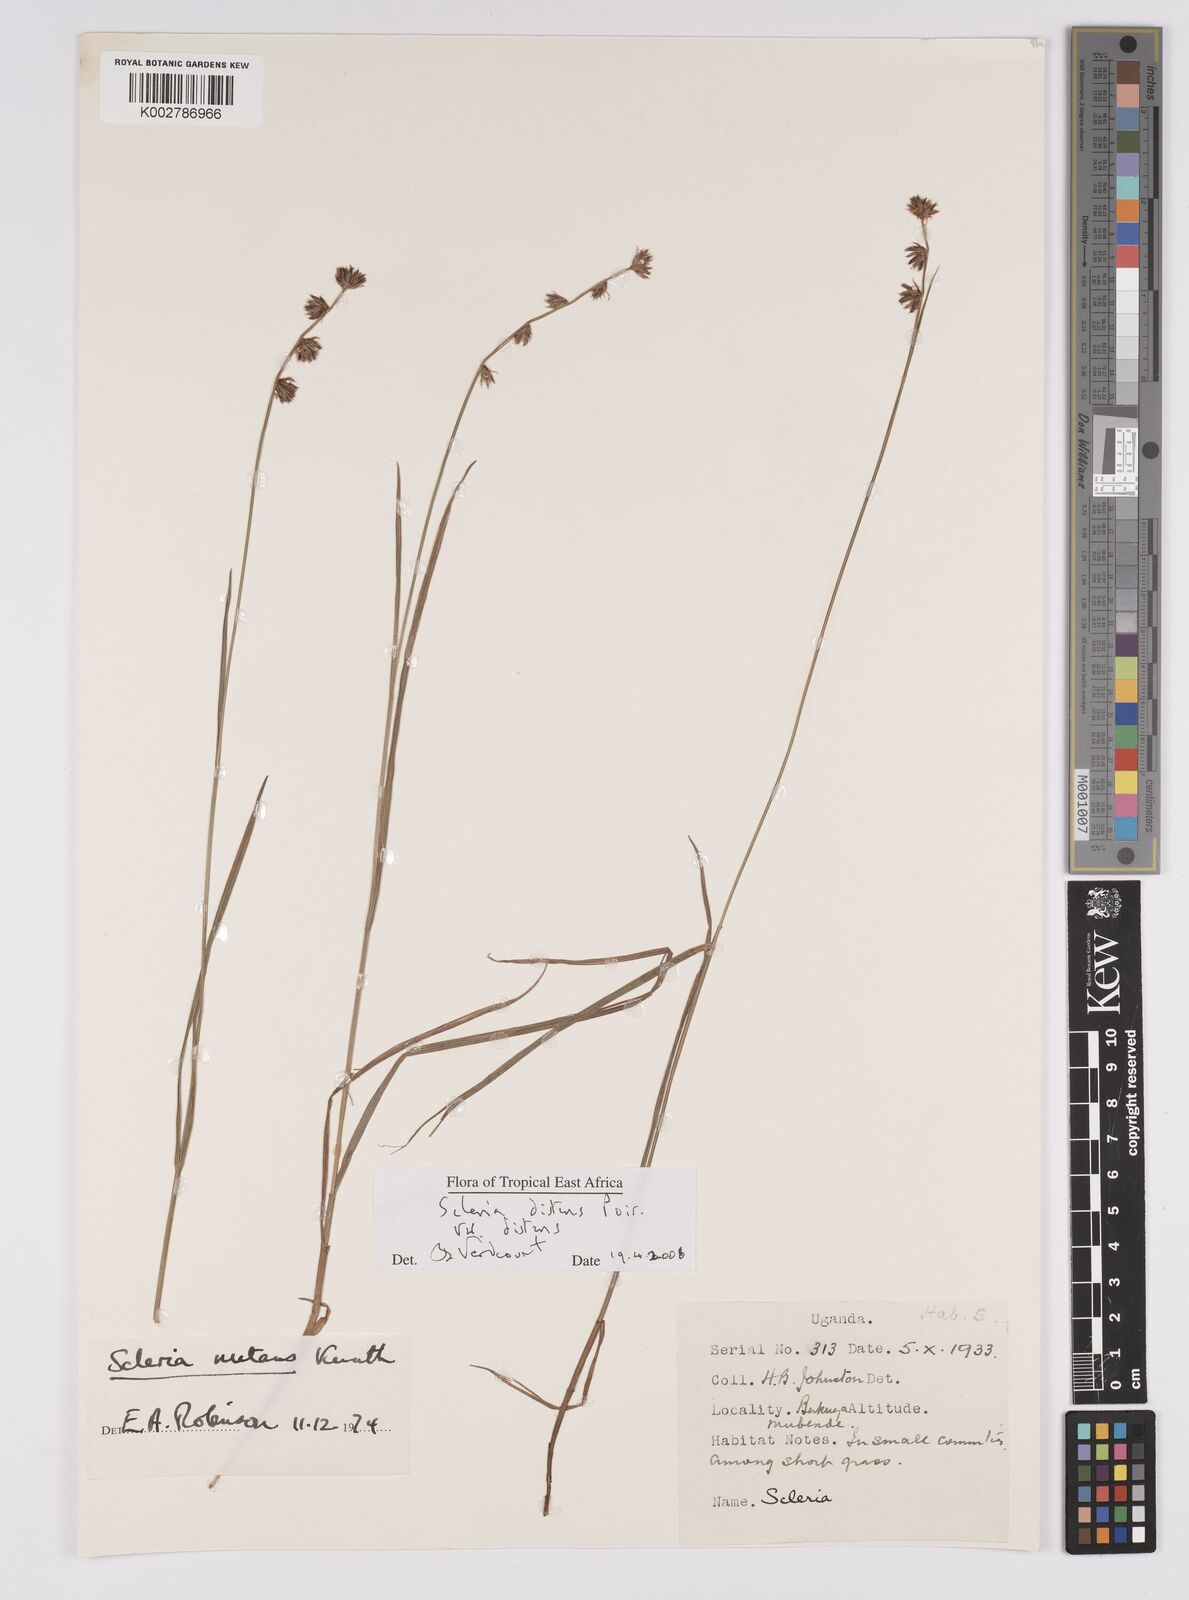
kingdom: Plantae
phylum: Tracheophyta
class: Liliopsida
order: Poales
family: Cyperaceae
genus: Scleria
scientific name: Scleria
